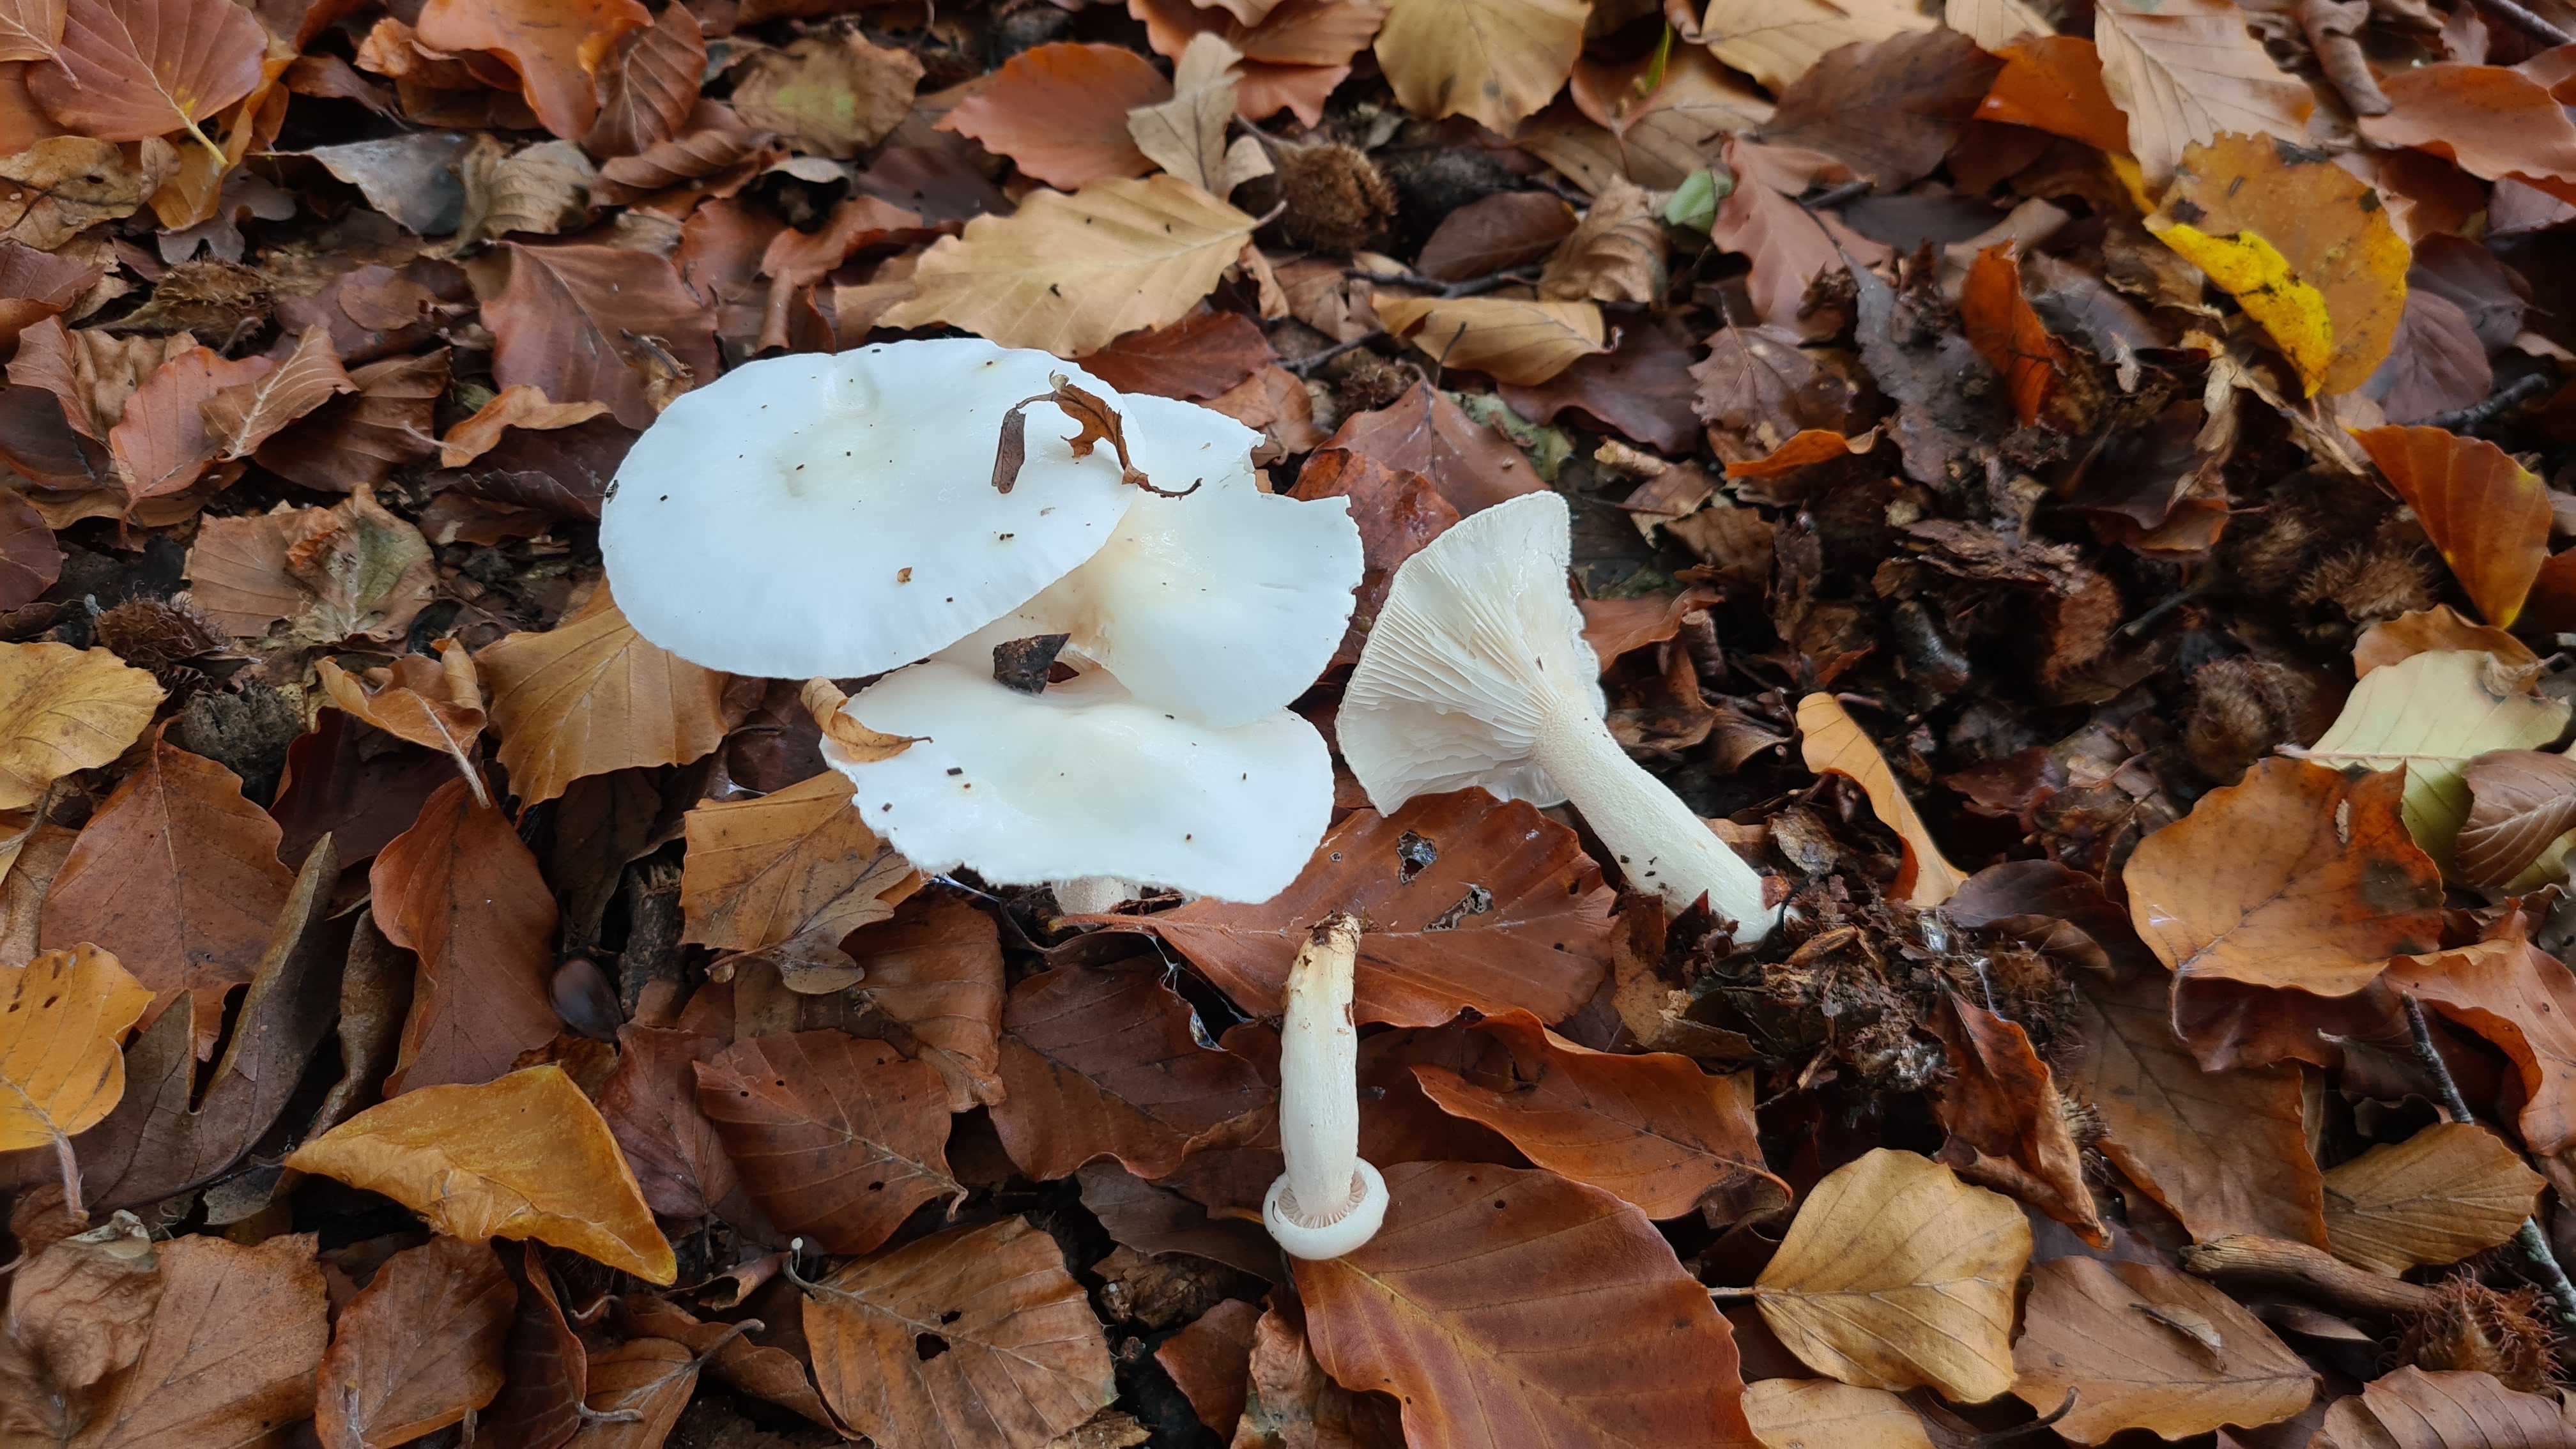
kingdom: Fungi
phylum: Basidiomycota
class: Agaricomycetes
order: Agaricales
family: Hygrophoraceae
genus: Hygrophorus
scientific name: Hygrophorus eburneus
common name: elfenbens-sneglehat
